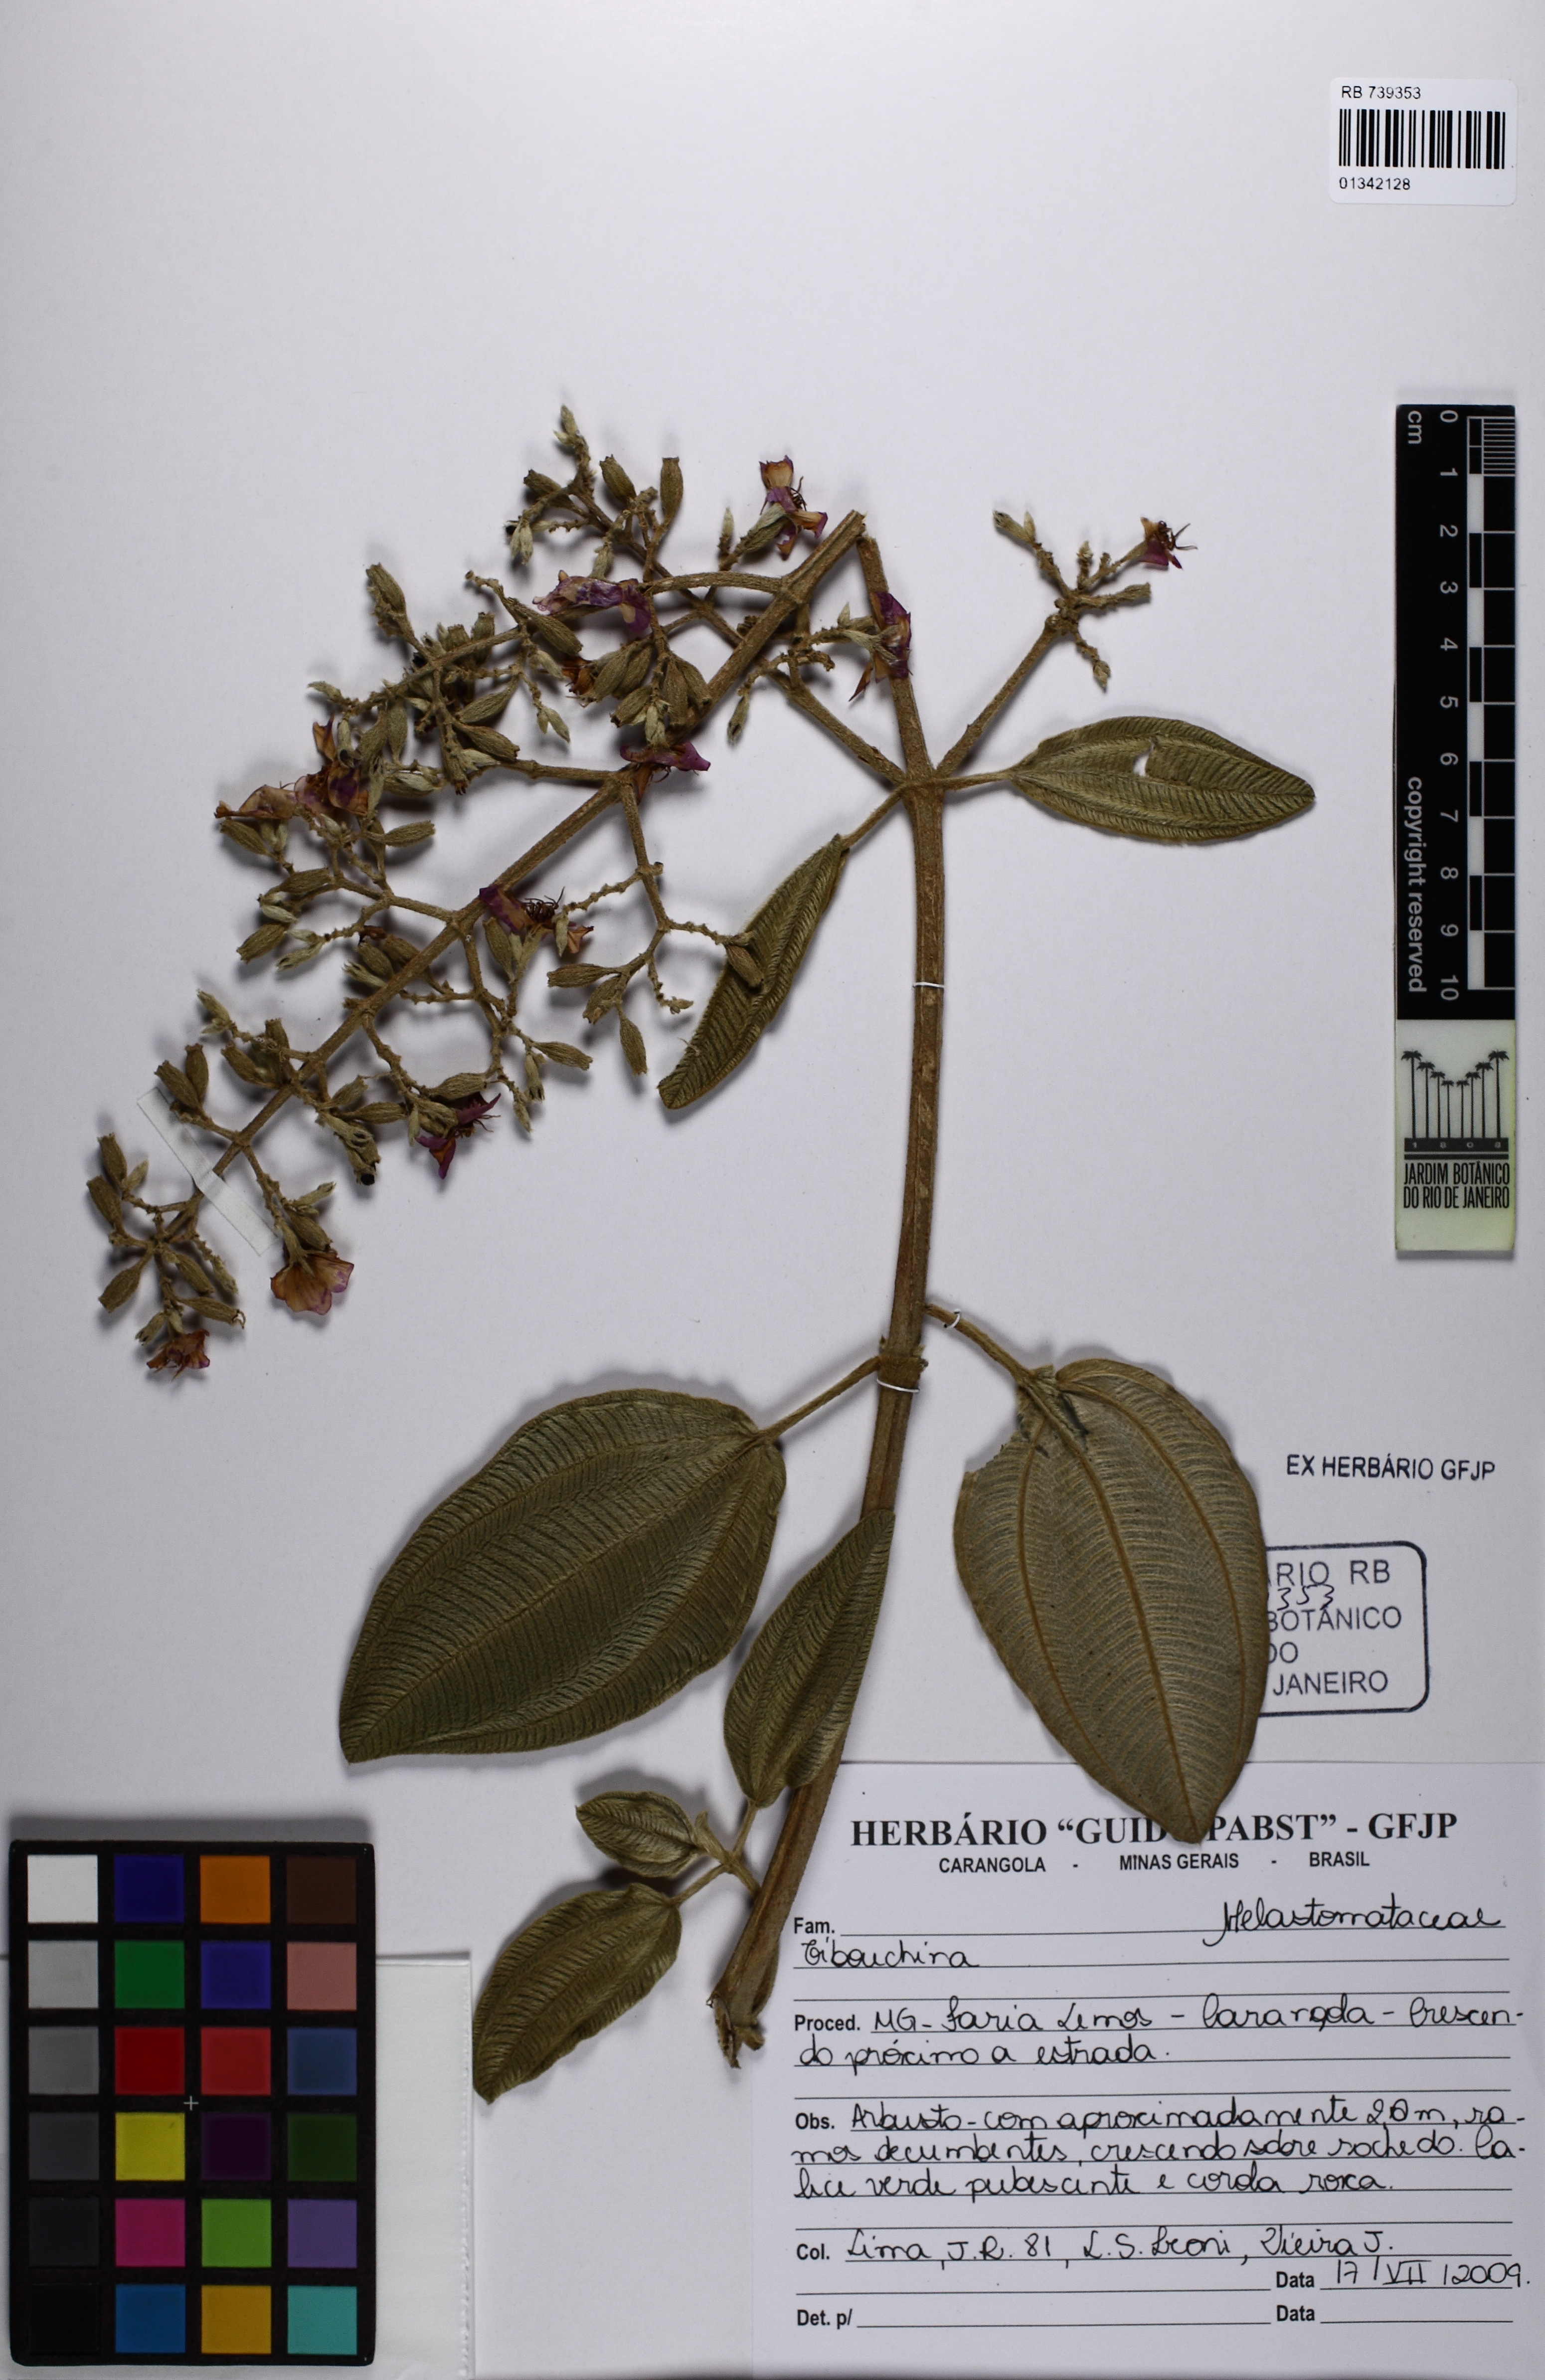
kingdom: Plantae
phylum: Tracheophyta
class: Magnoliopsida
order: Myrtales
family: Melastomataceae
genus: Tibouchina
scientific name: Tibouchina
